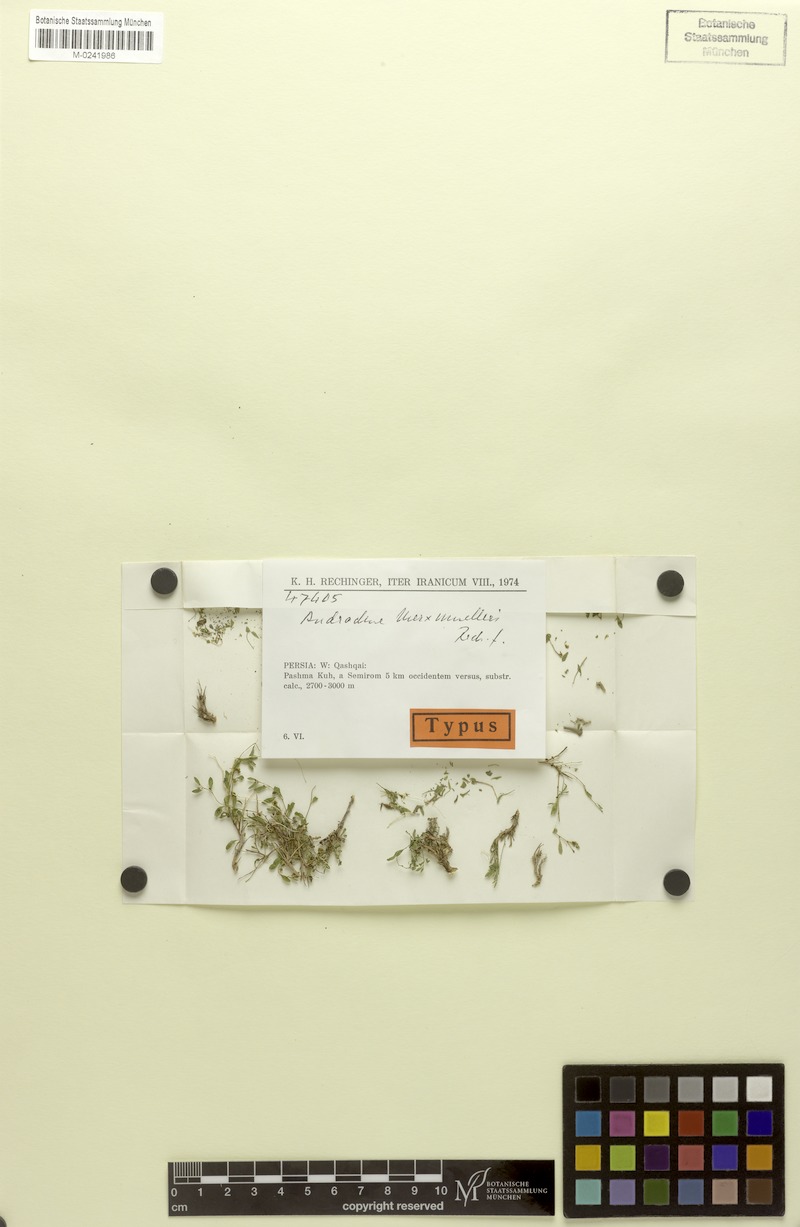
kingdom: Plantae
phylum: Tracheophyta
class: Magnoliopsida
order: Malpighiales
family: Phyllanthaceae
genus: Andrachne
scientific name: Andrachne merxmuelleri
